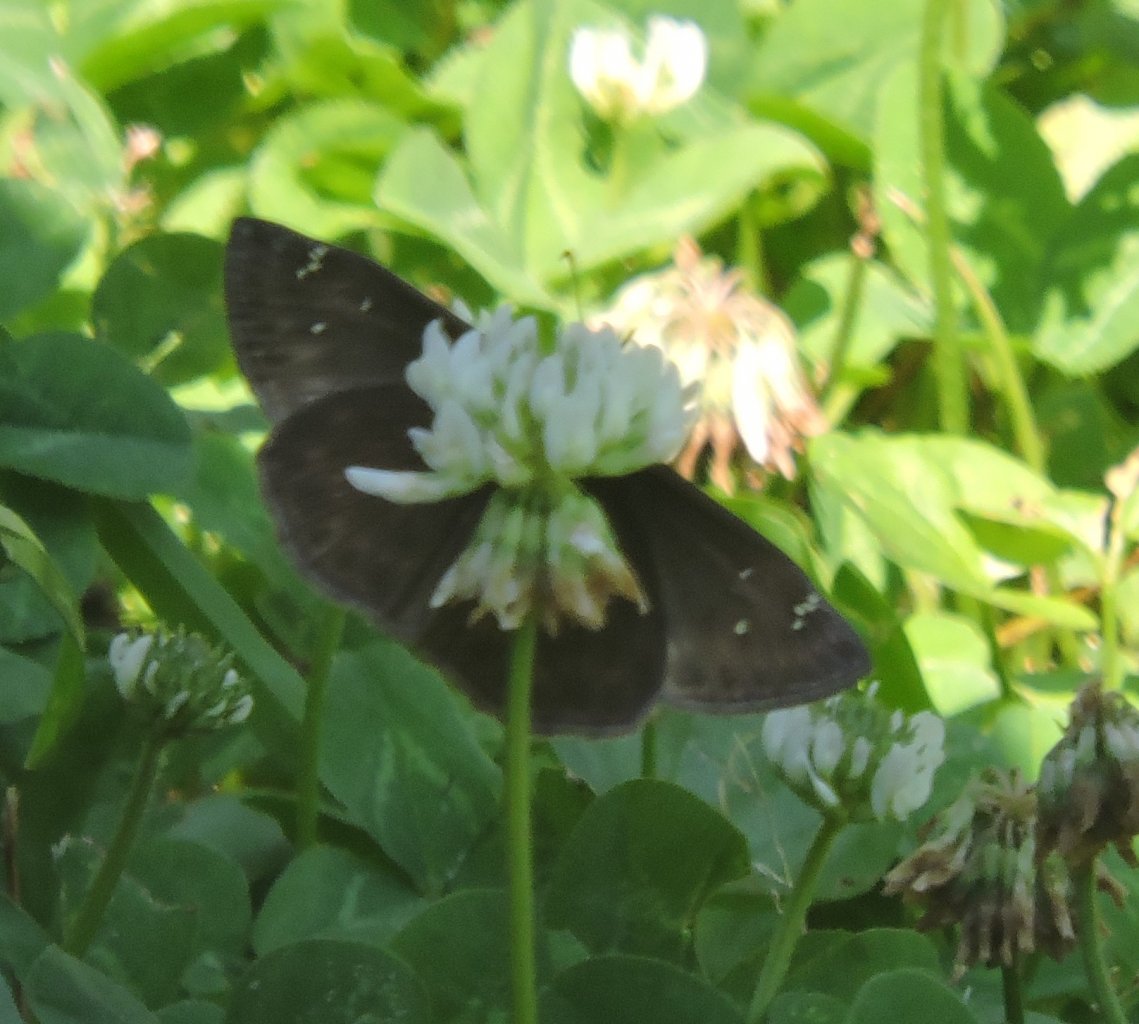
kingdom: Animalia
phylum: Arthropoda
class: Insecta
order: Lepidoptera
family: Hesperiidae
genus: Gesta
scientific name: Gesta
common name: Horace's Duskywing
